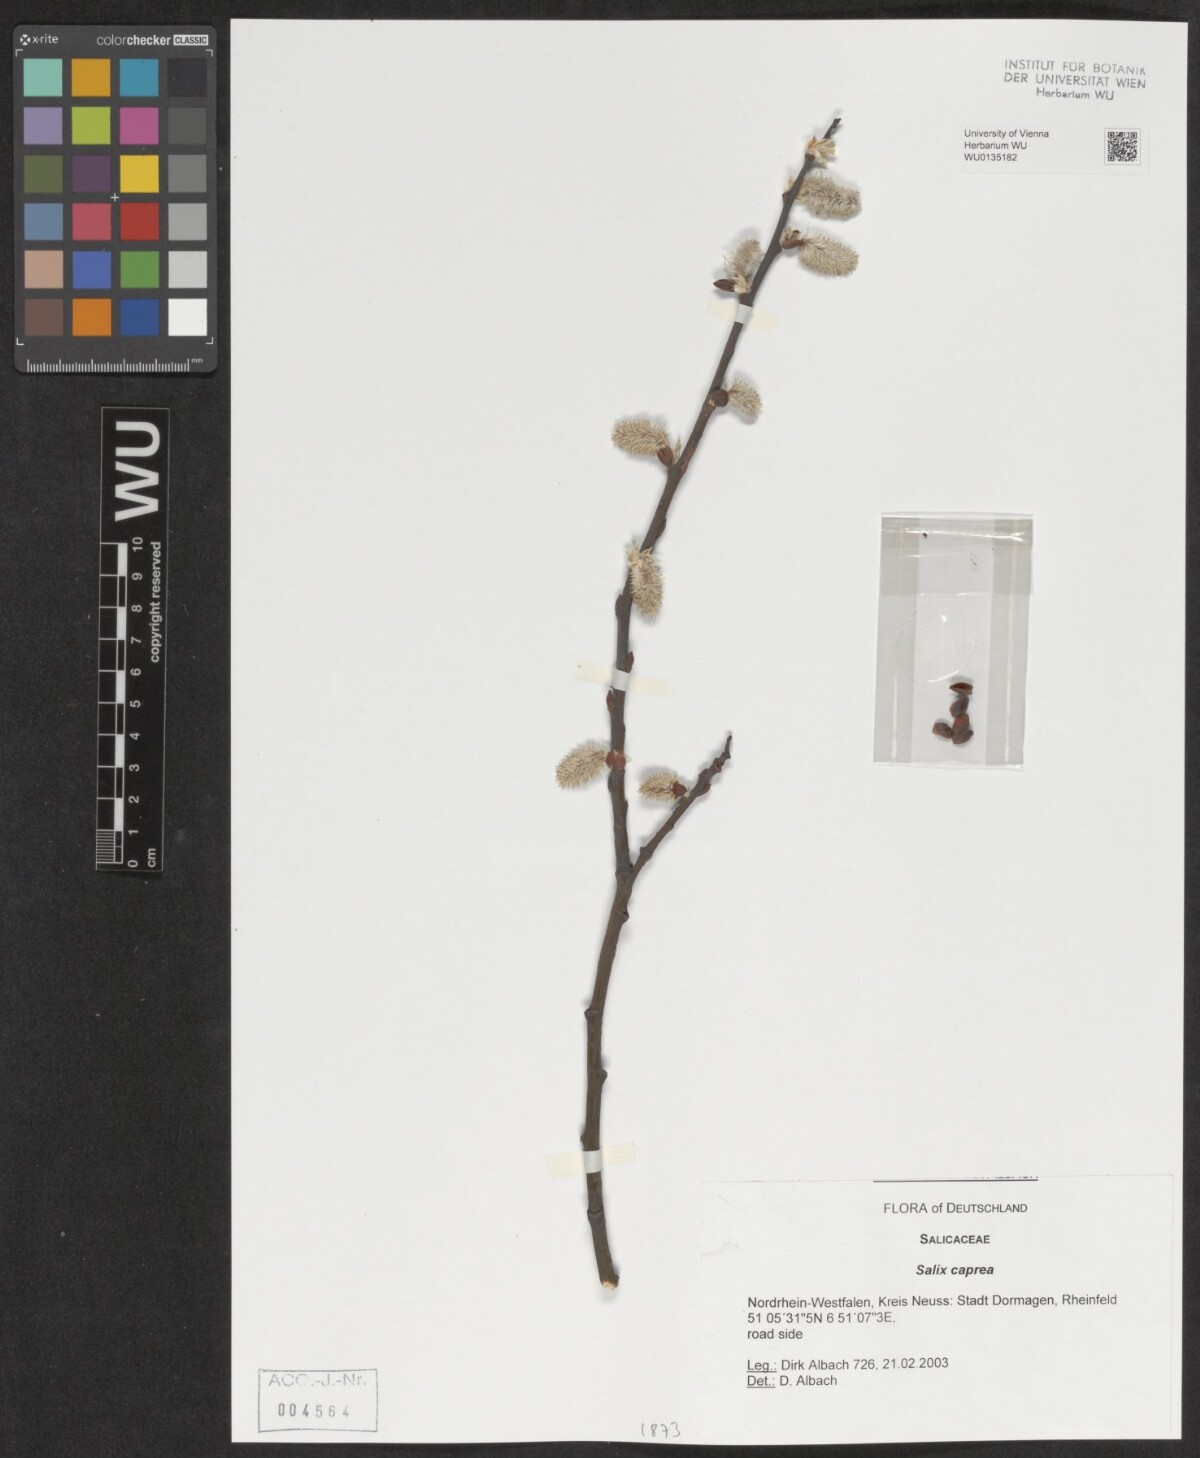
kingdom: Plantae
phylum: Tracheophyta
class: Magnoliopsida
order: Malpighiales
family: Salicaceae
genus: Salix
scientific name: Salix caprea
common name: Goat willow
